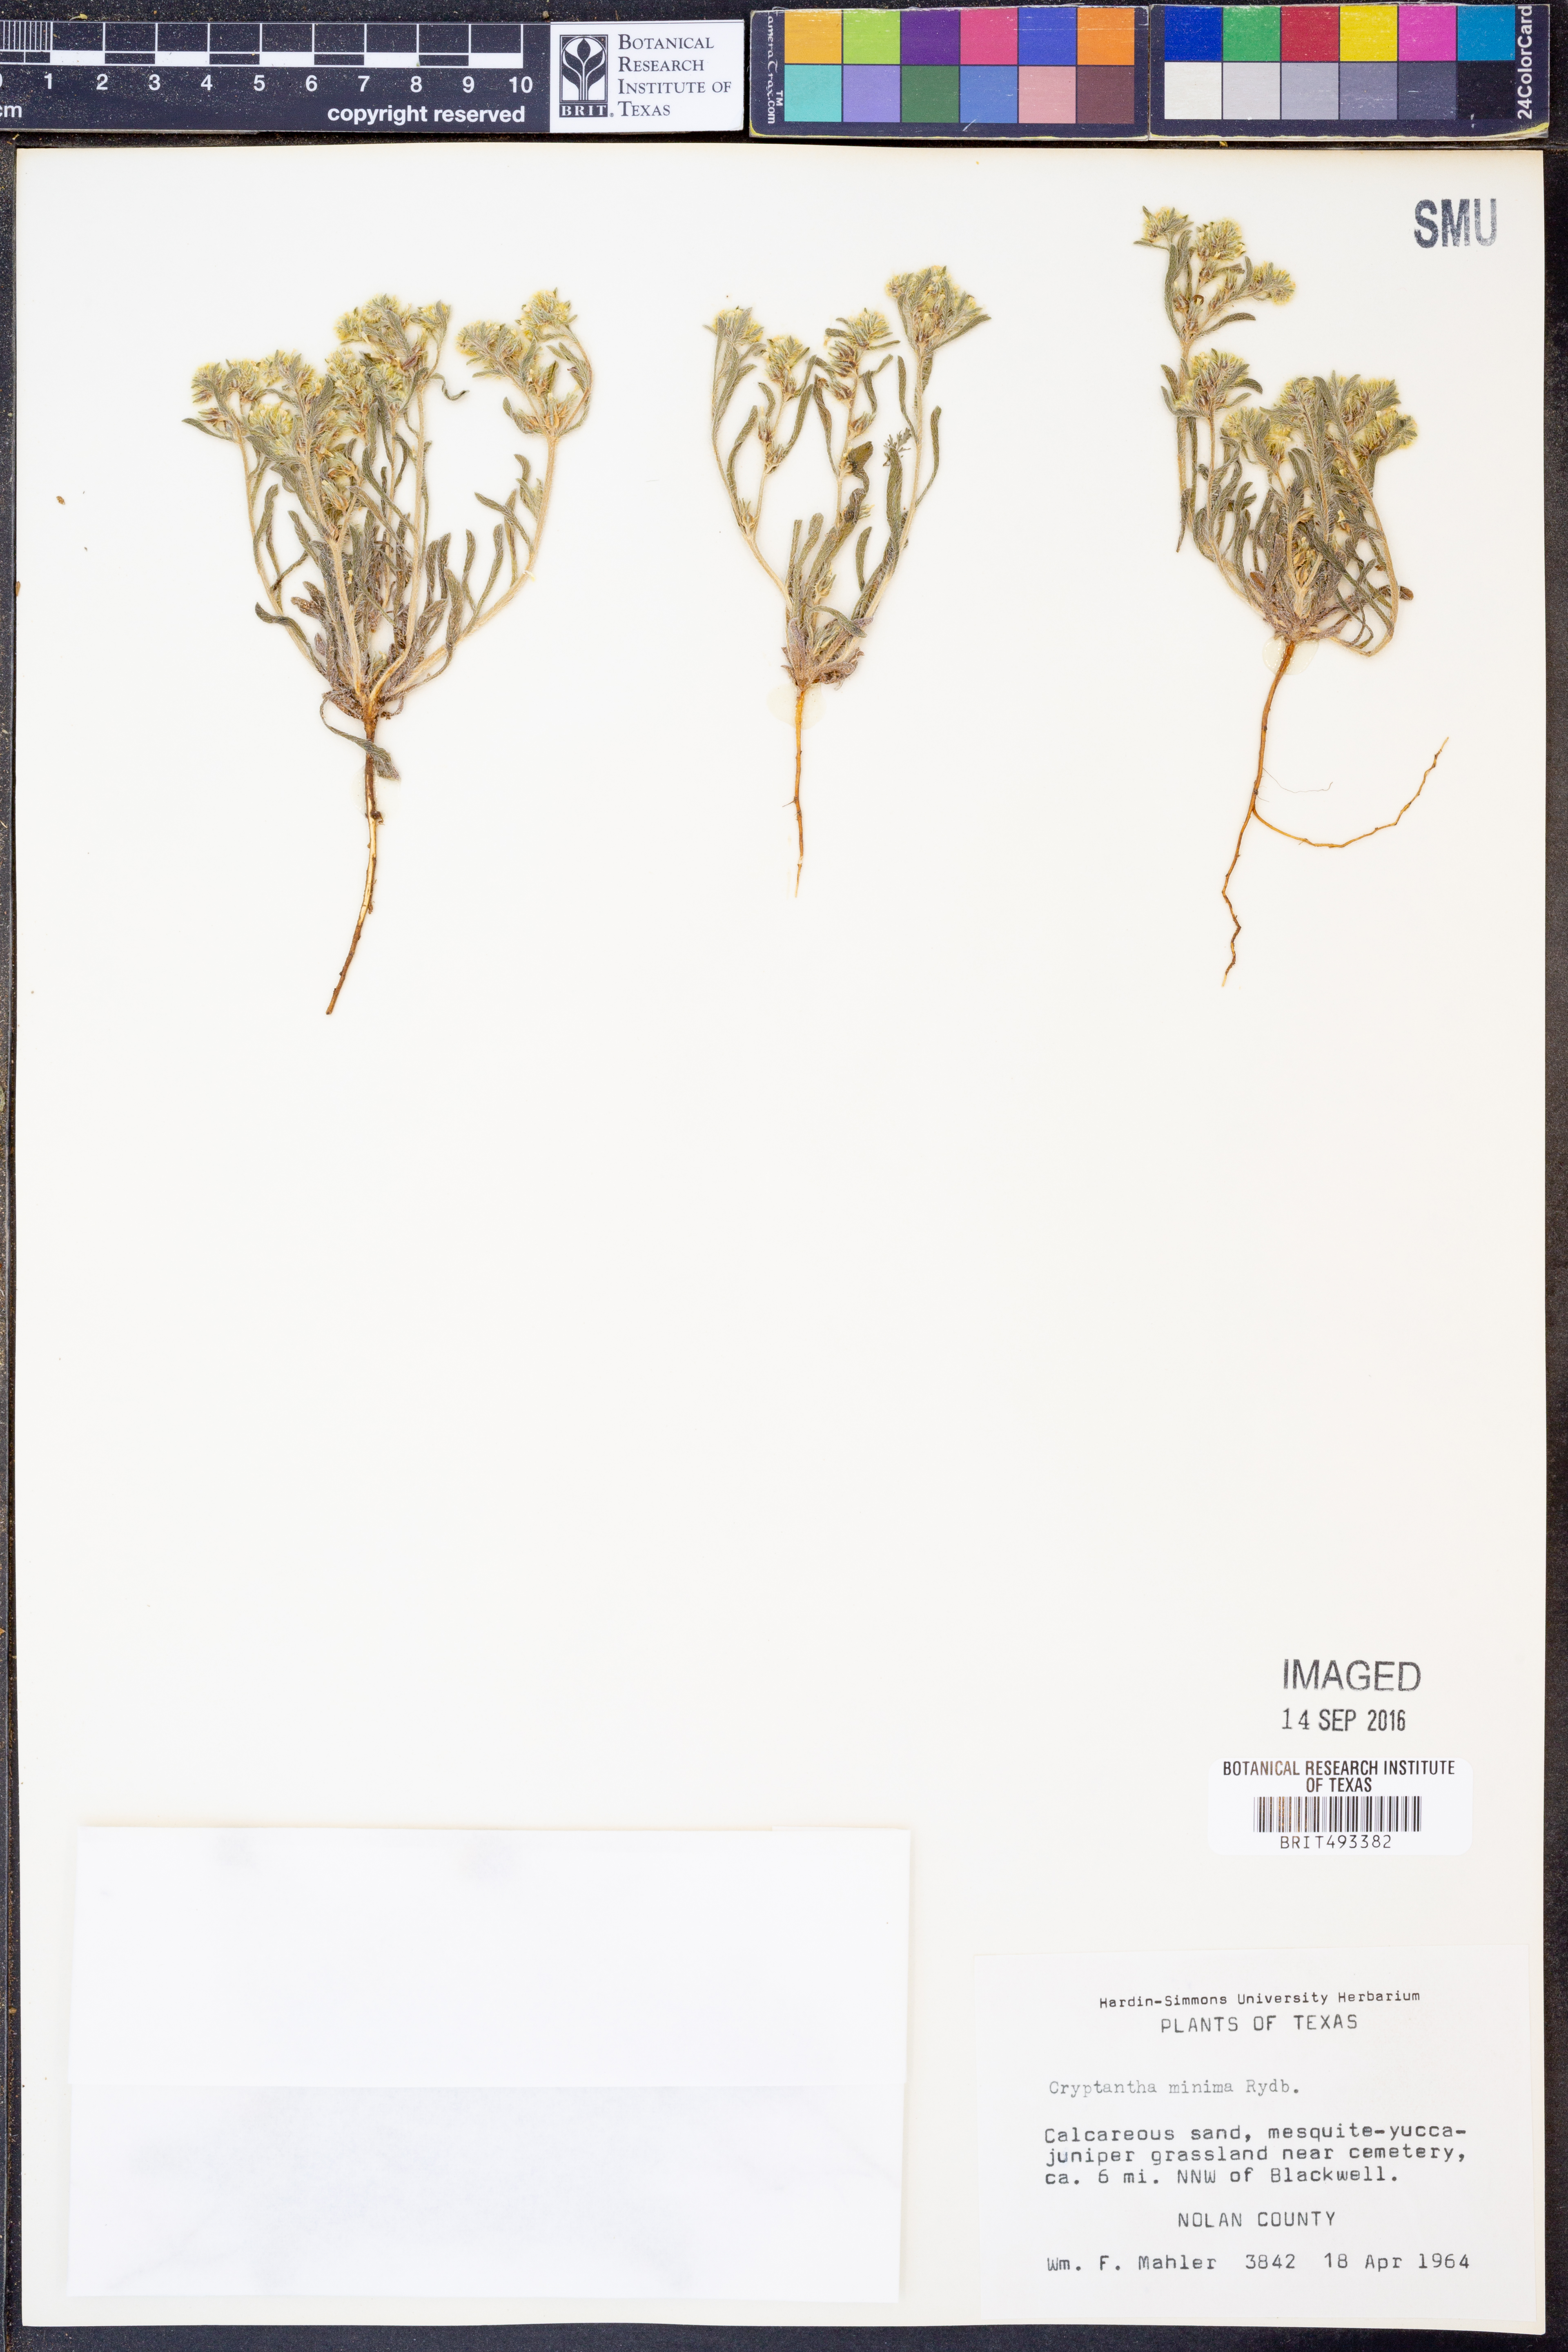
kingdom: Plantae
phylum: Tracheophyta
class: Magnoliopsida
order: Boraginales
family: Boraginaceae
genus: Cryptantha
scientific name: Cryptantha minima
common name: Little cat's-eye
